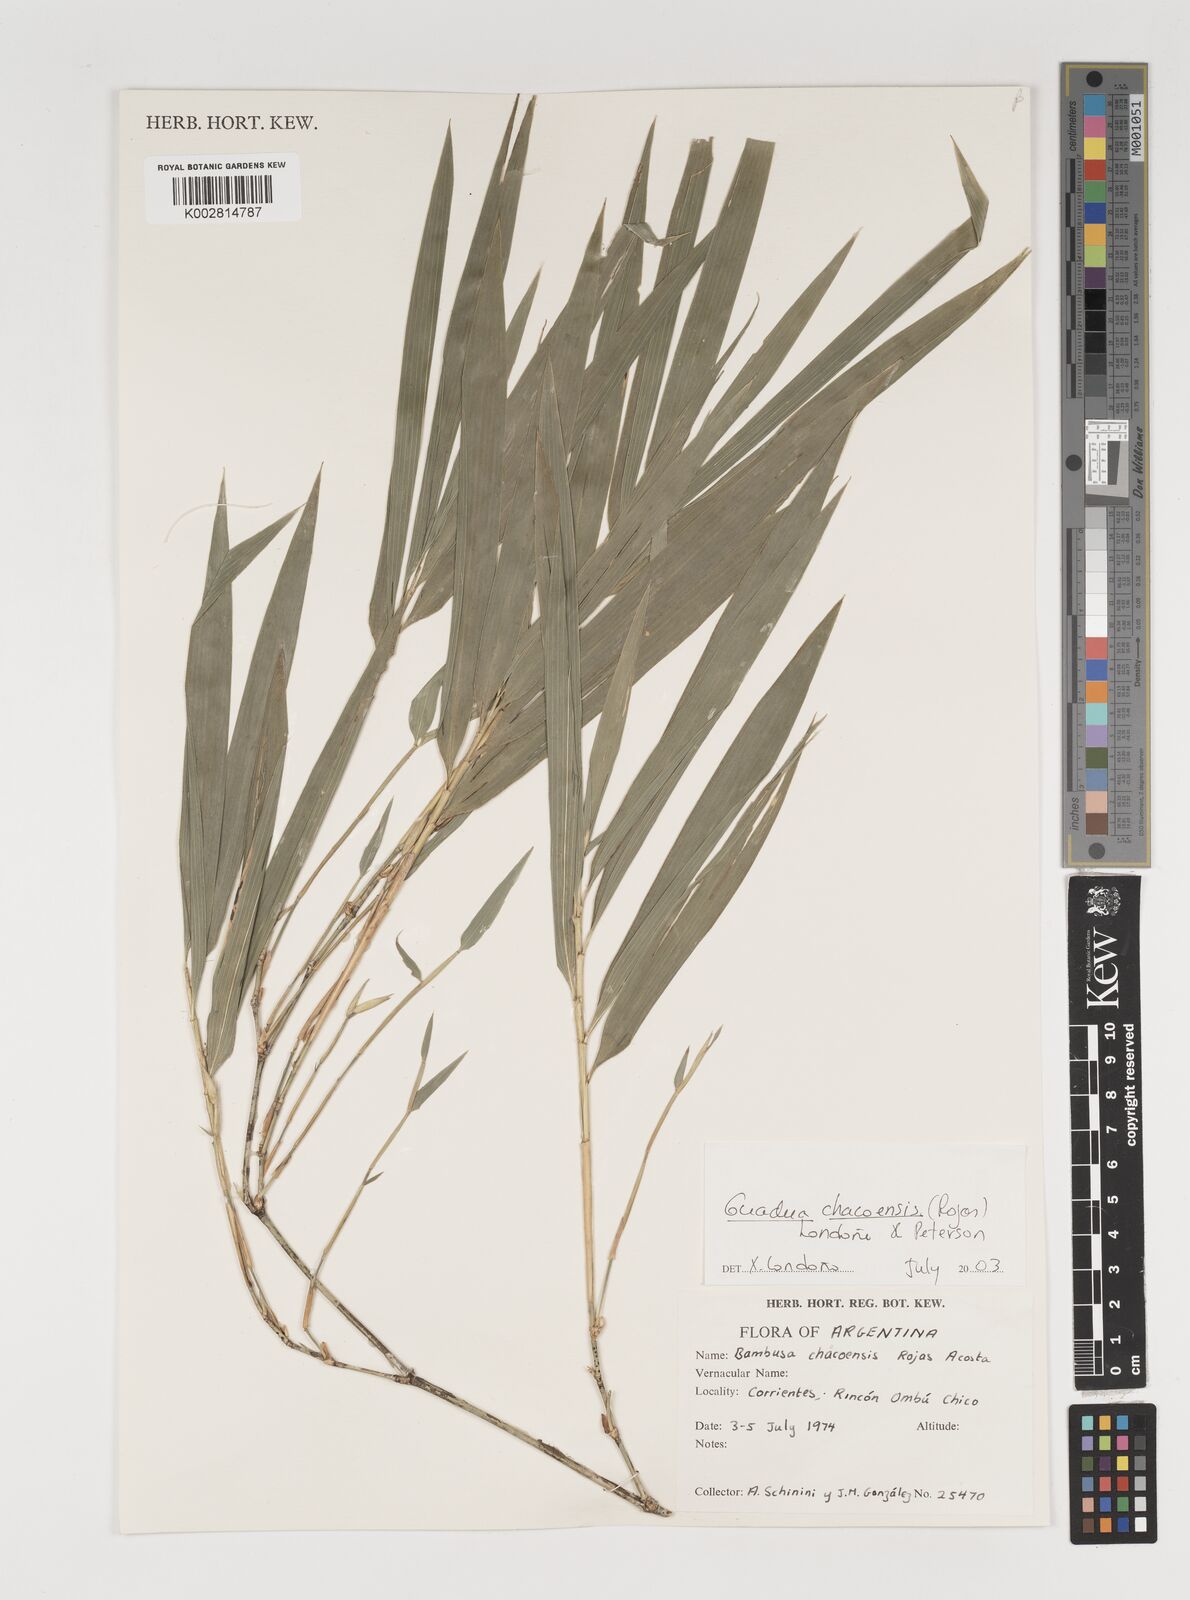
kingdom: Plantae
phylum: Tracheophyta
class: Liliopsida
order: Poales
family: Poaceae
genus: Guadua
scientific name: Guadua chacoensis
